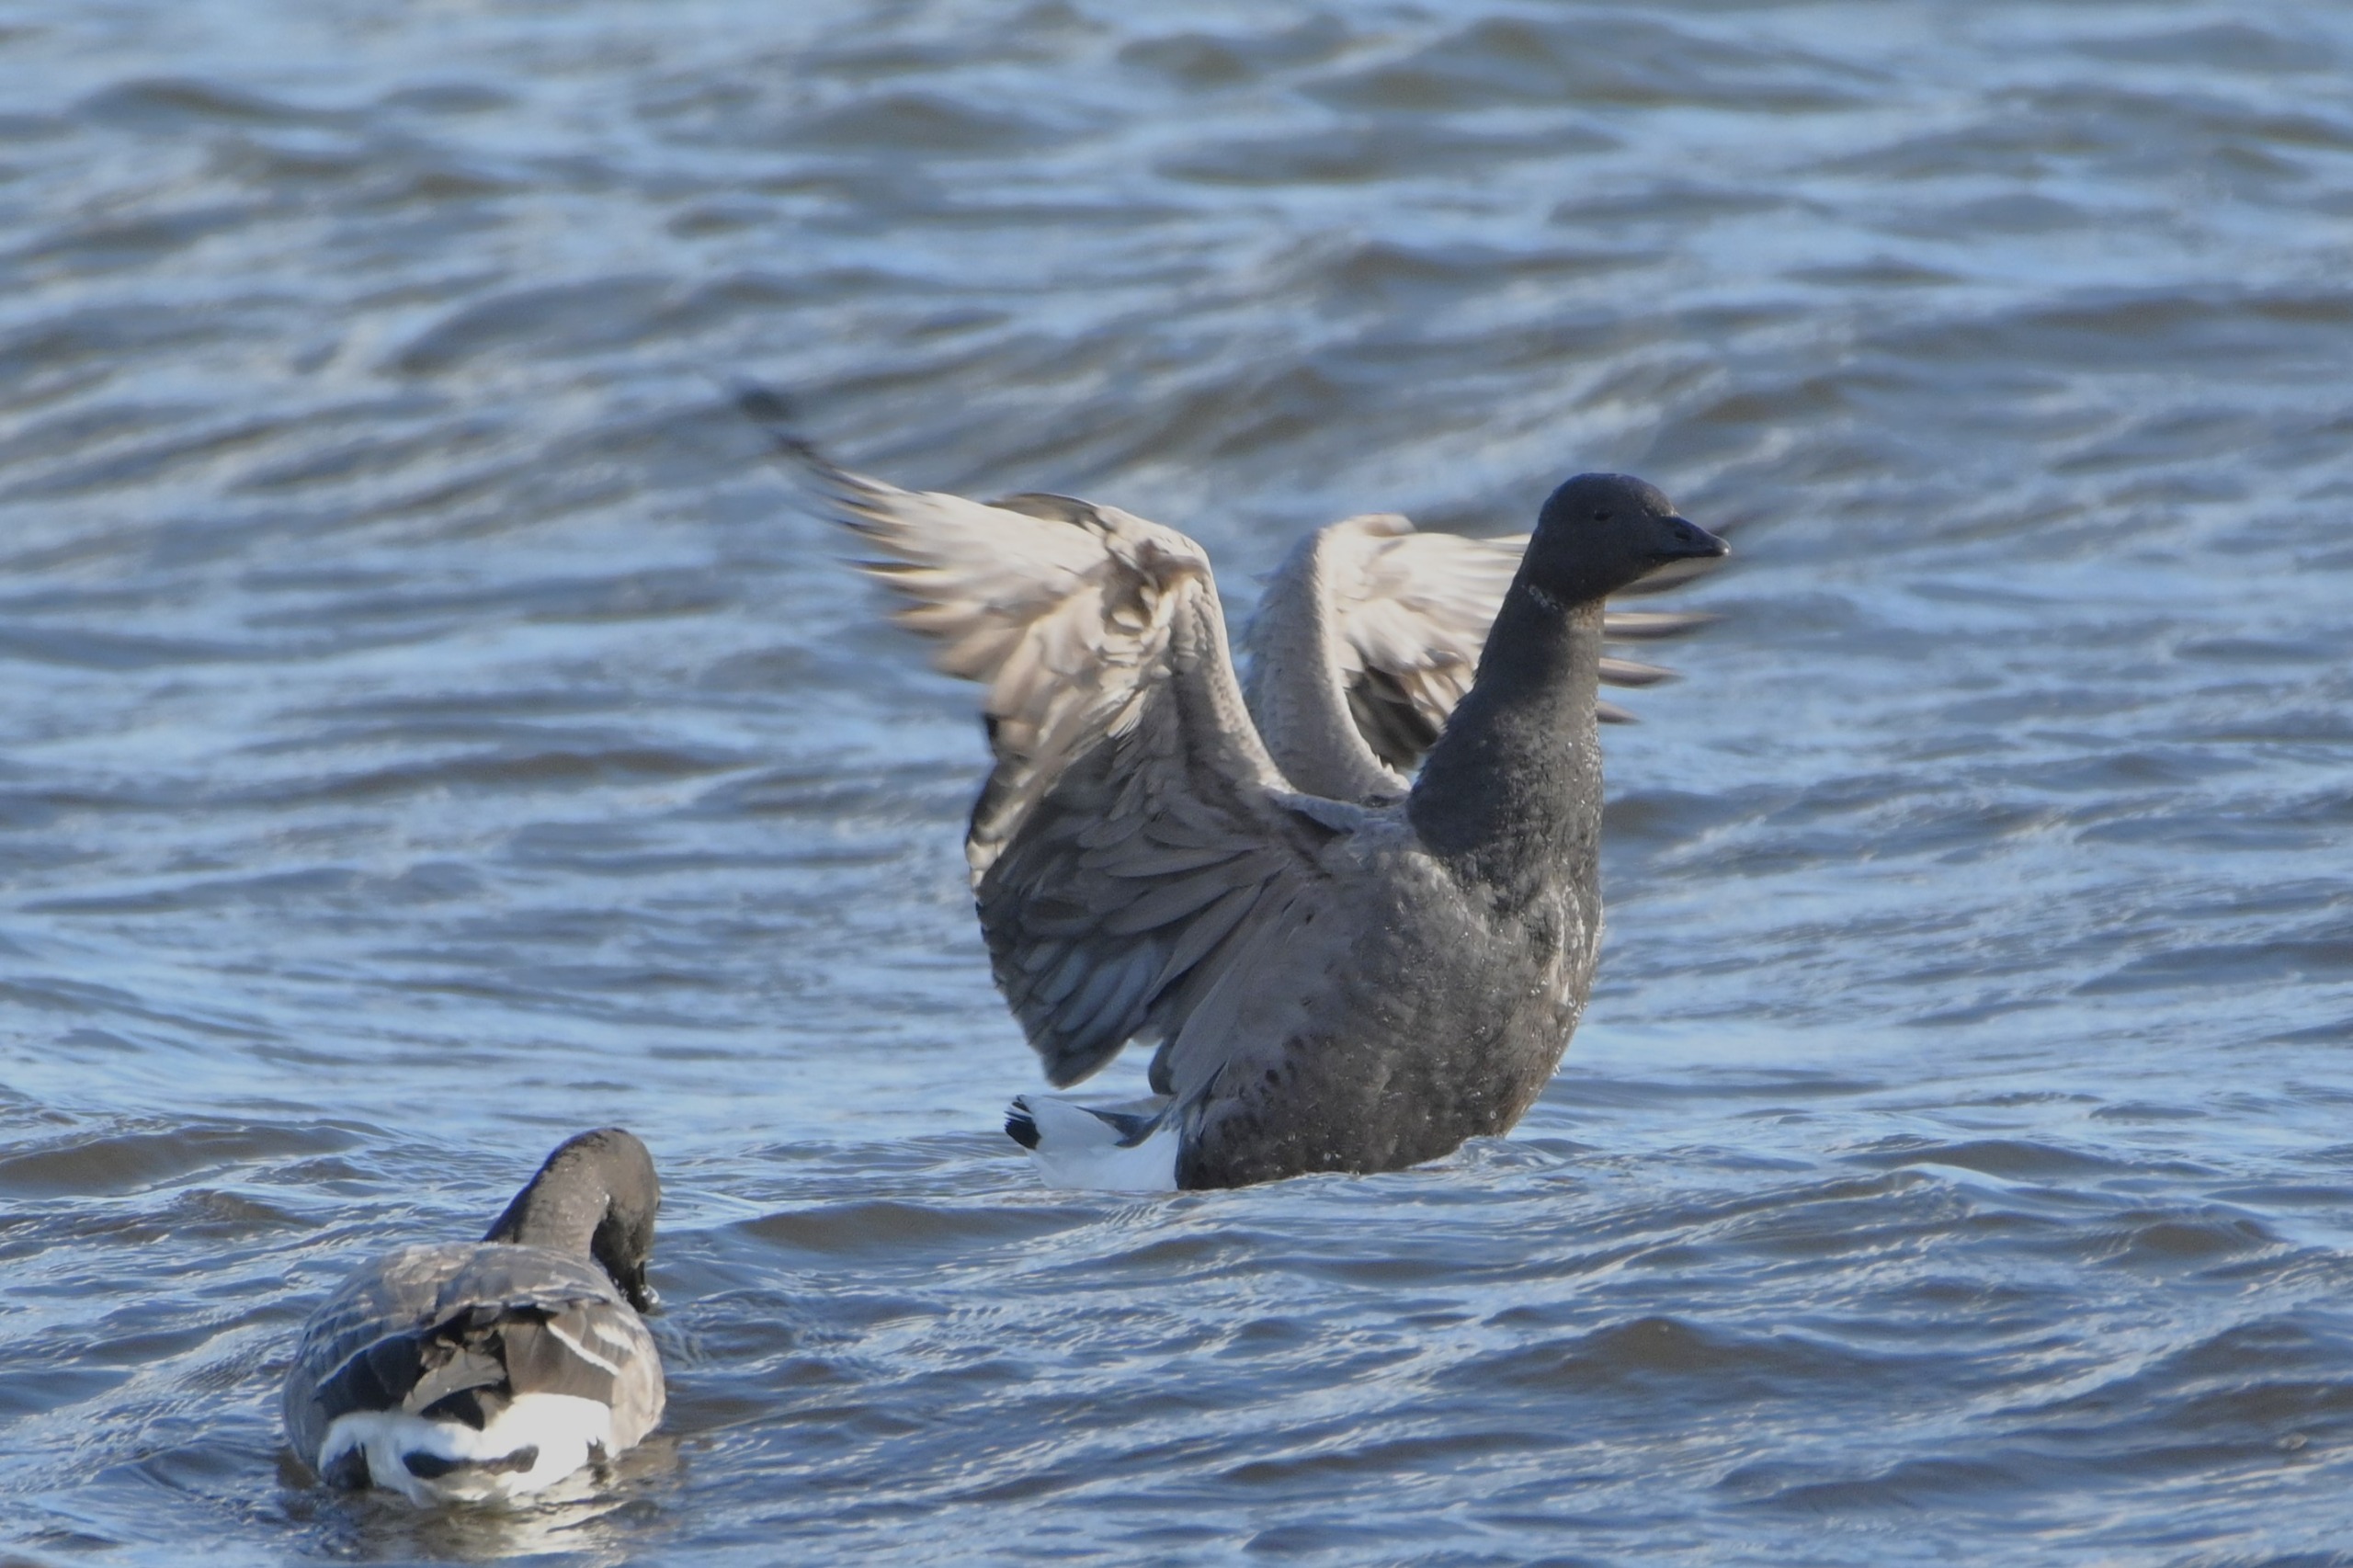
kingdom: Animalia
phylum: Chordata
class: Aves
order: Anseriformes
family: Anatidae
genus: Branta
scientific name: Branta bernicla
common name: Knortegås
